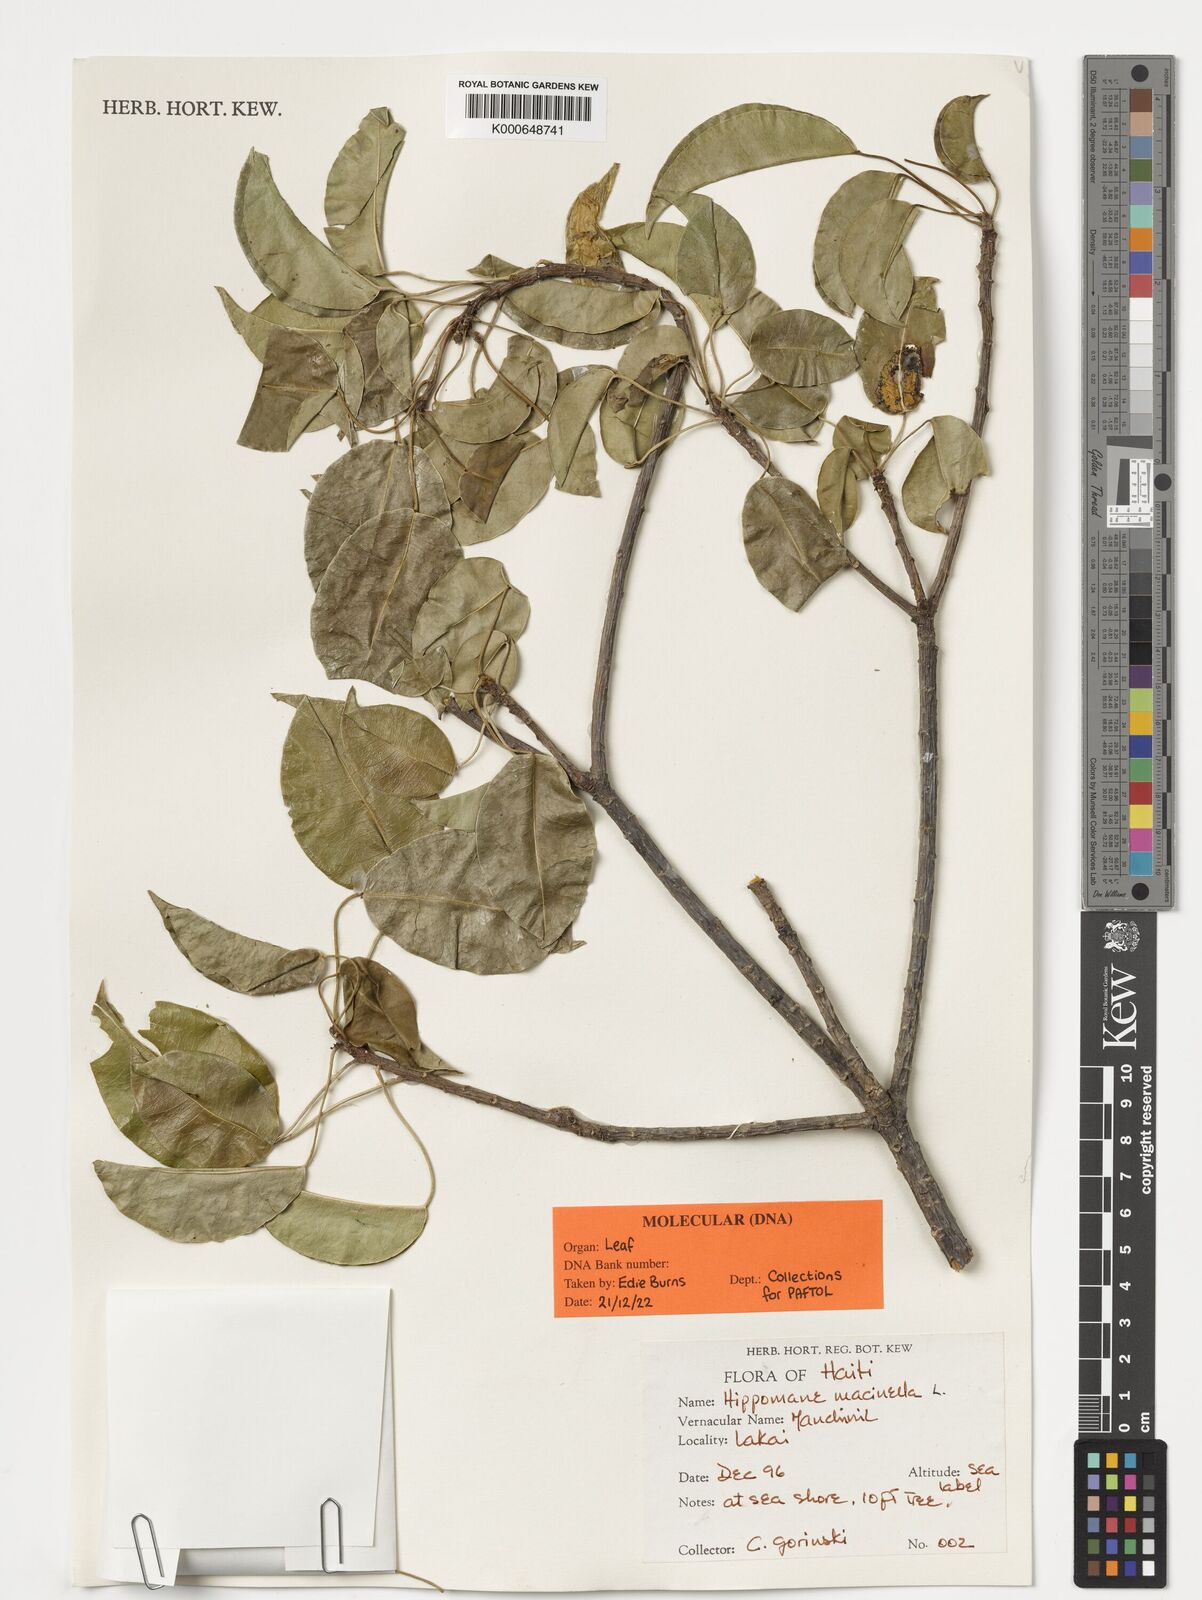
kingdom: Plantae
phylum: Tracheophyta
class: Magnoliopsida
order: Malpighiales
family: Euphorbiaceae
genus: Hippomane
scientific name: Hippomane mancinella
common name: Manchineel
